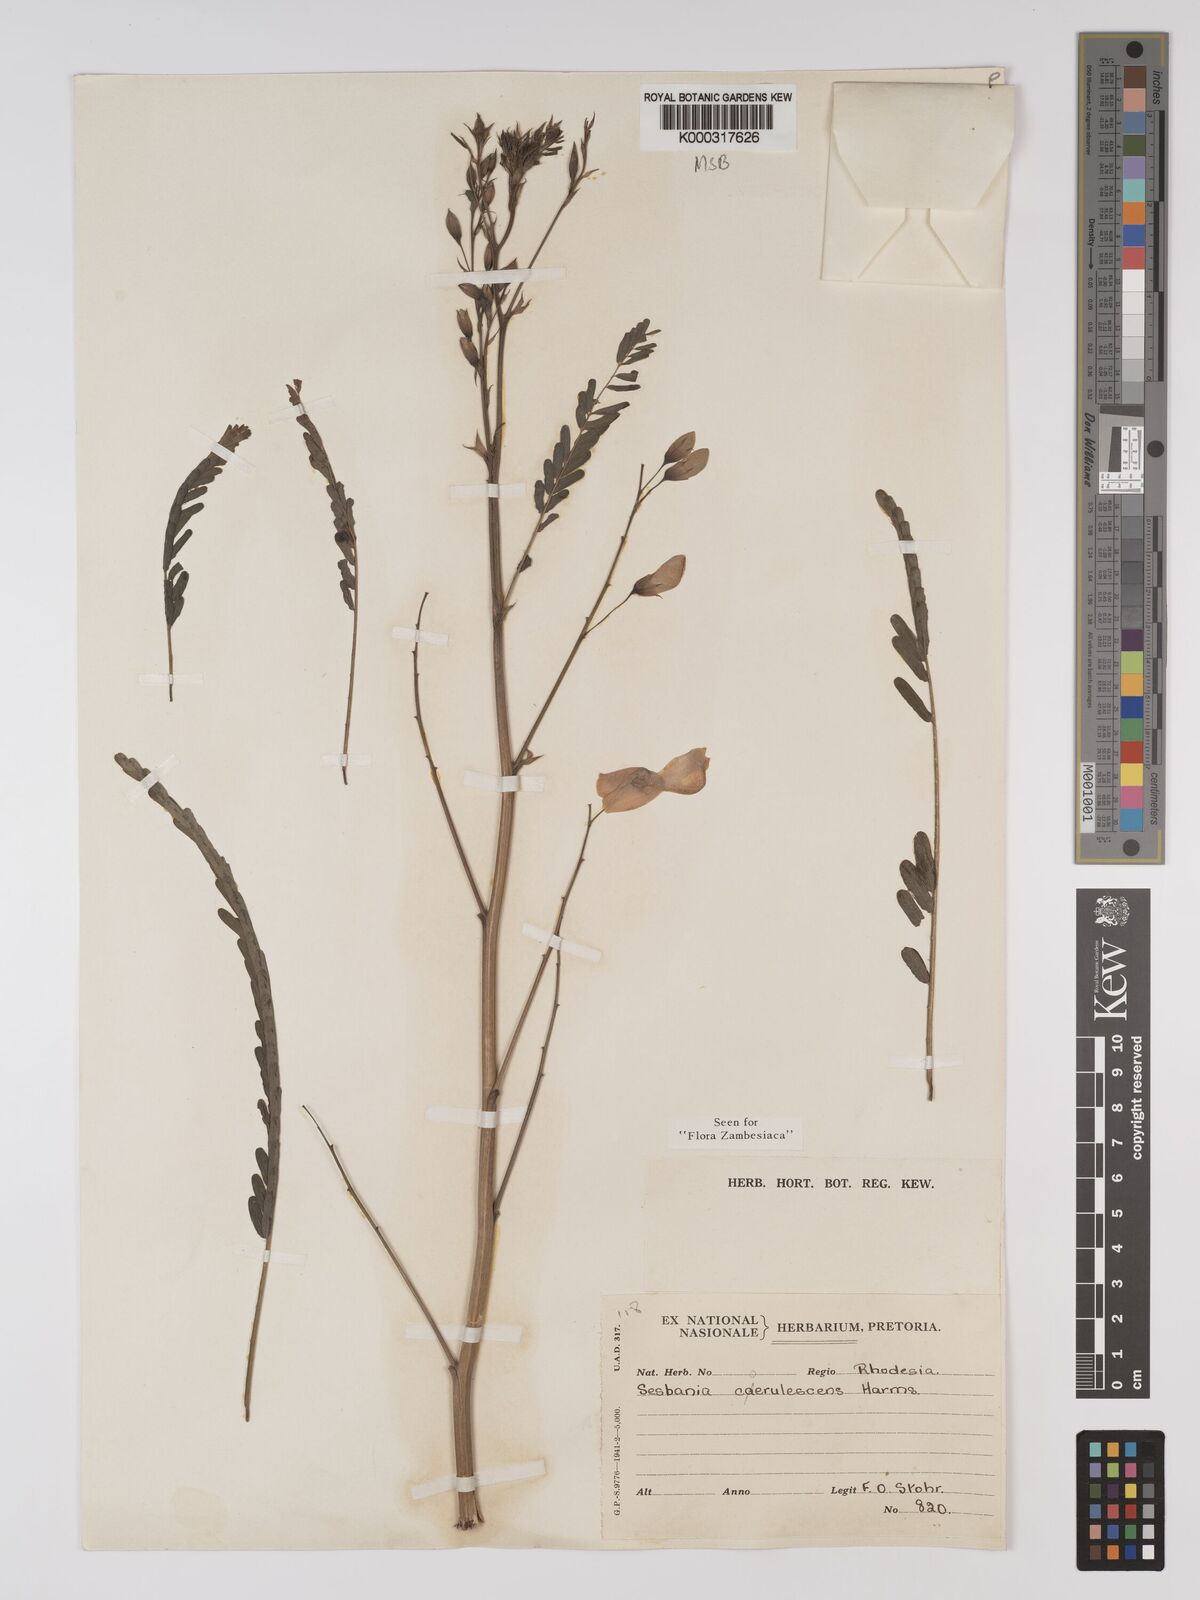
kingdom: Plantae
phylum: Tracheophyta
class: Magnoliopsida
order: Fabales
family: Fabaceae
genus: Sesbania
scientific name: Sesbania coerulescens
